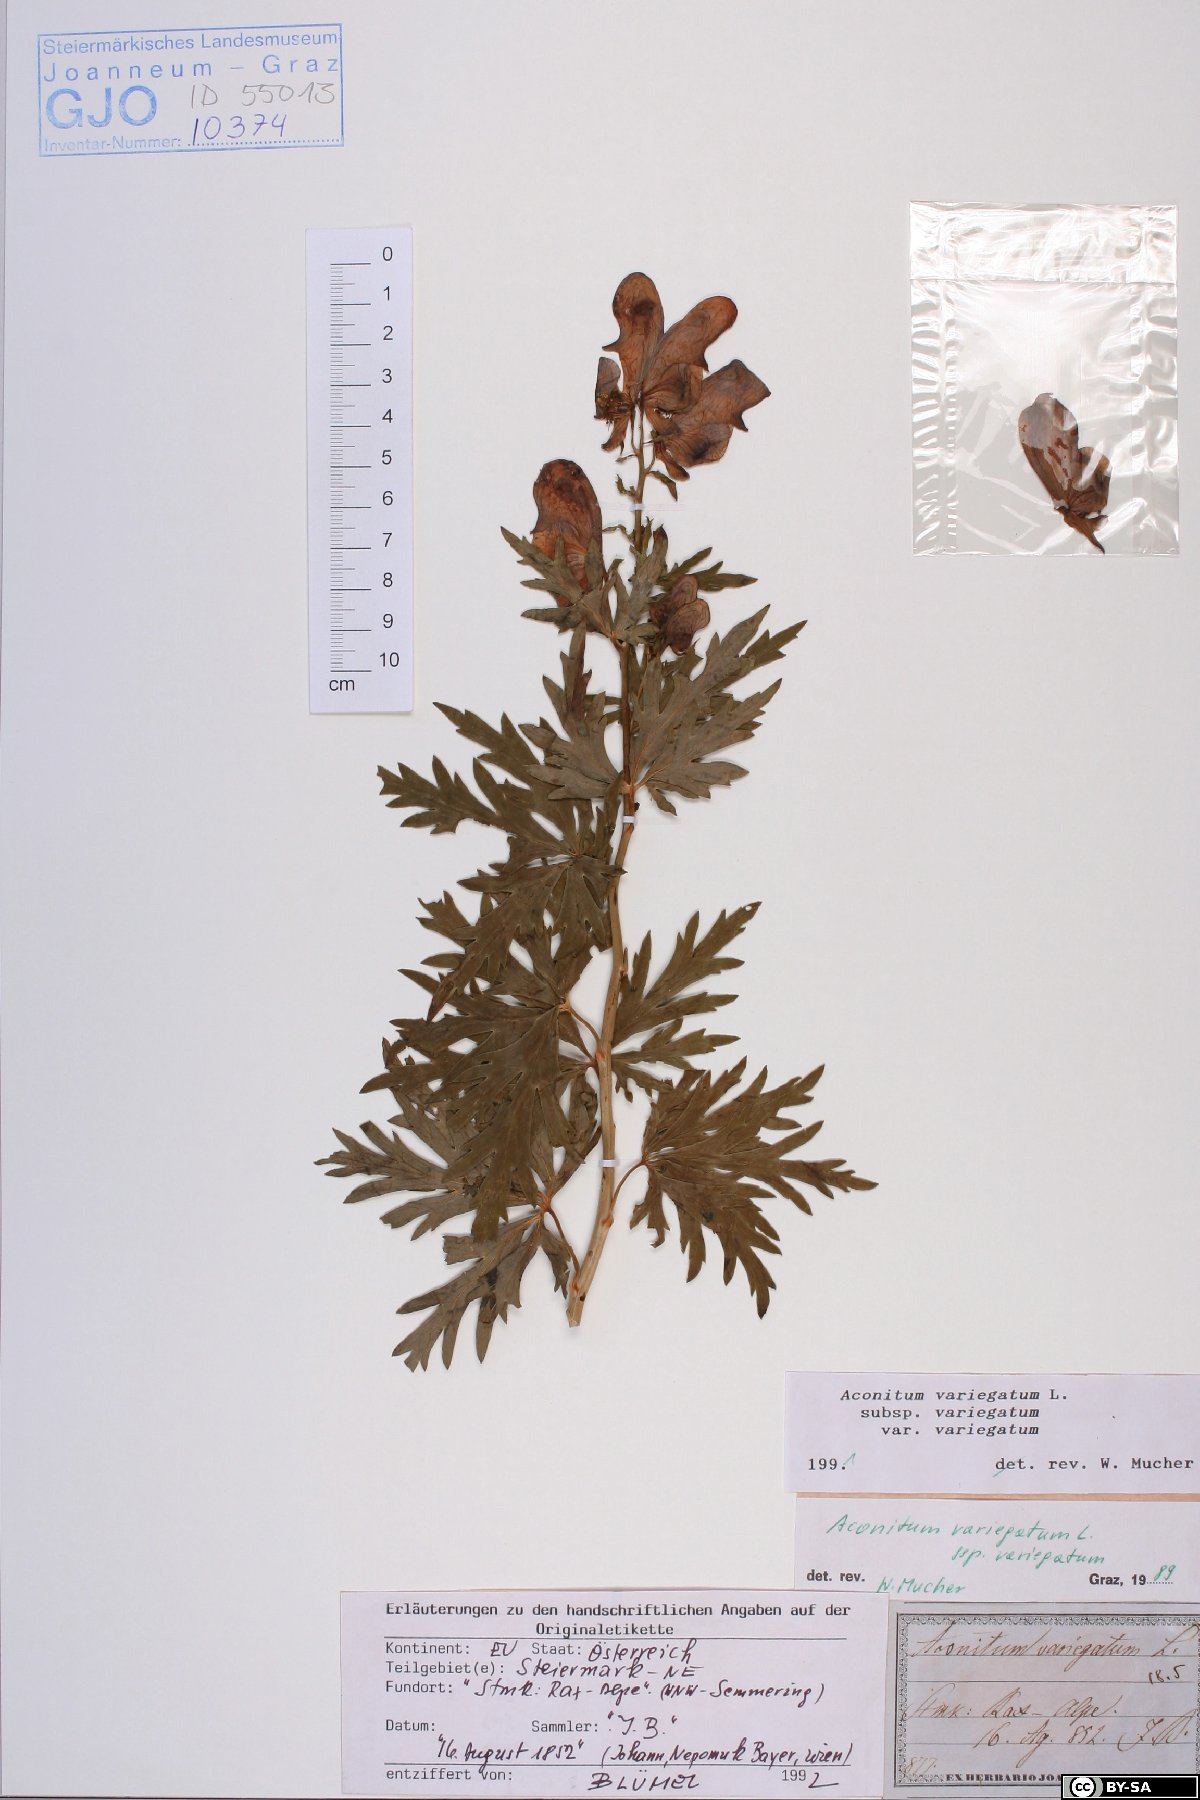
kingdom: Plantae
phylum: Tracheophyta
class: Magnoliopsida
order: Ranunculales
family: Ranunculaceae
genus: Aconitum
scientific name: Aconitum variegatum
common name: Manchurian monkshood
